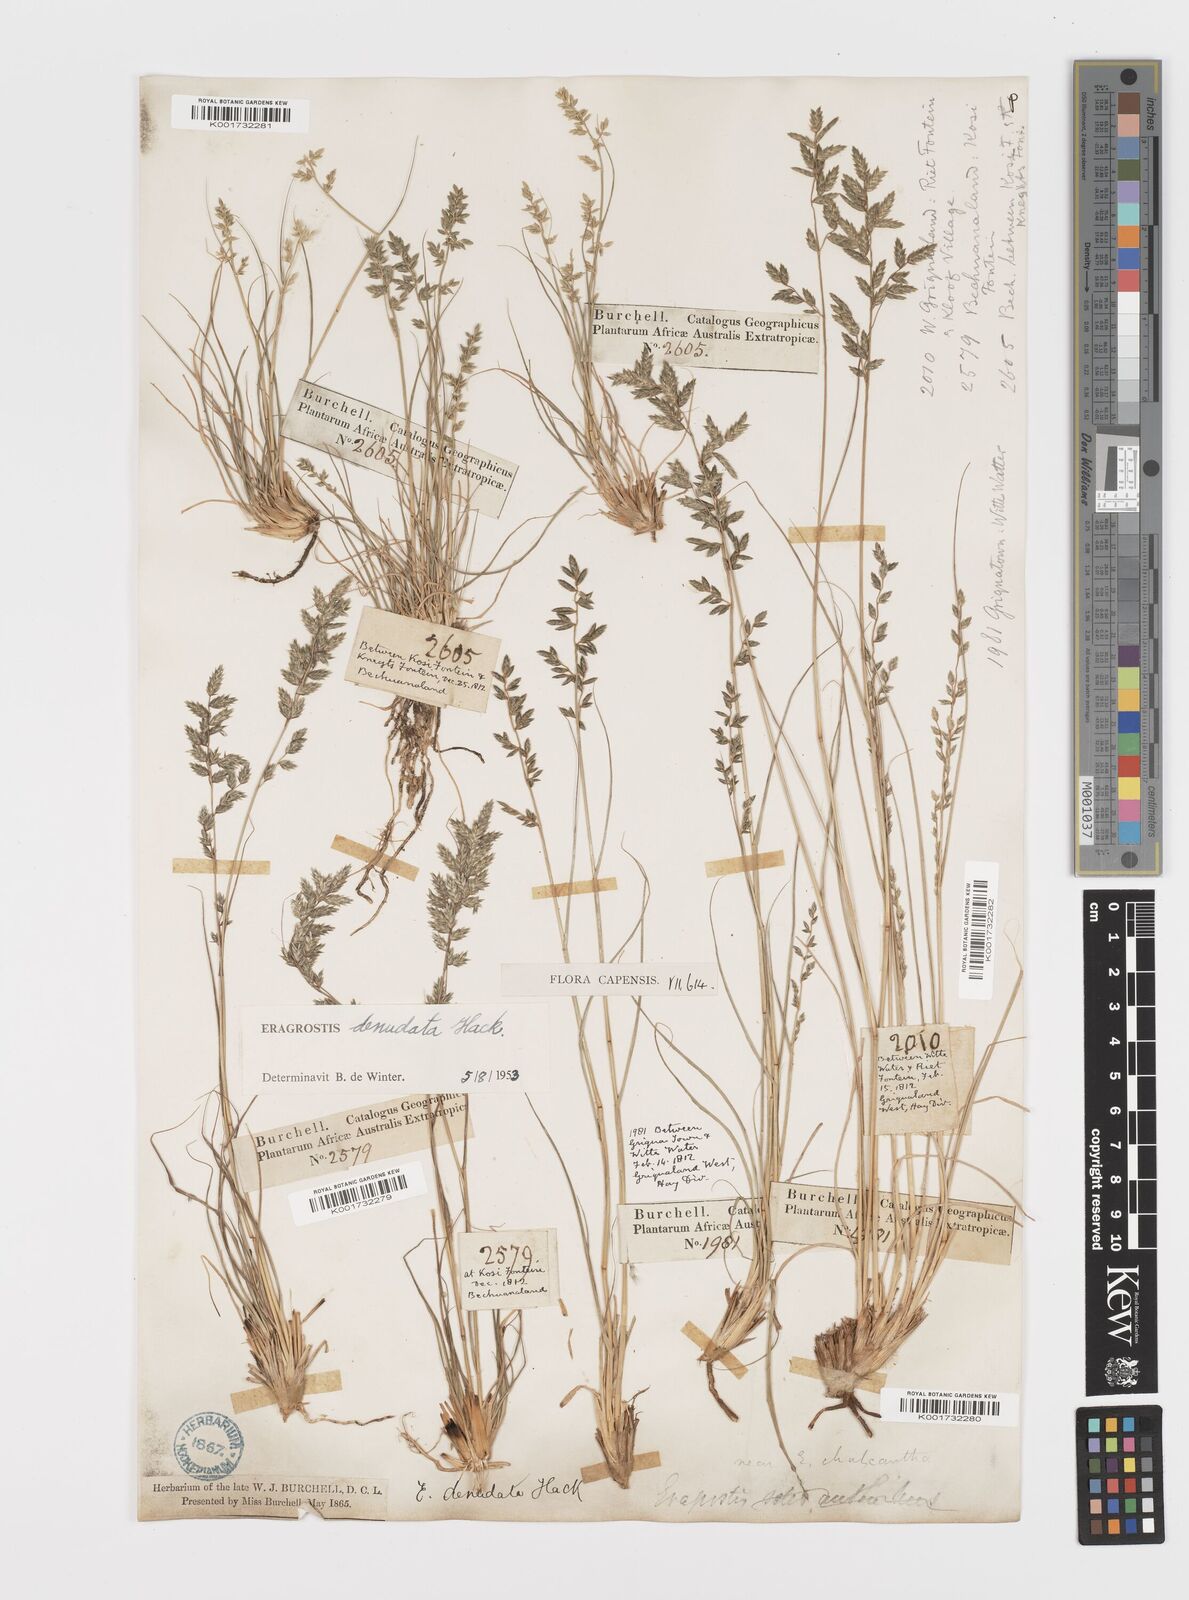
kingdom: Plantae
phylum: Tracheophyta
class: Liliopsida
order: Poales
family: Poaceae
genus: Eragrostis
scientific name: Eragrostis nindensis
